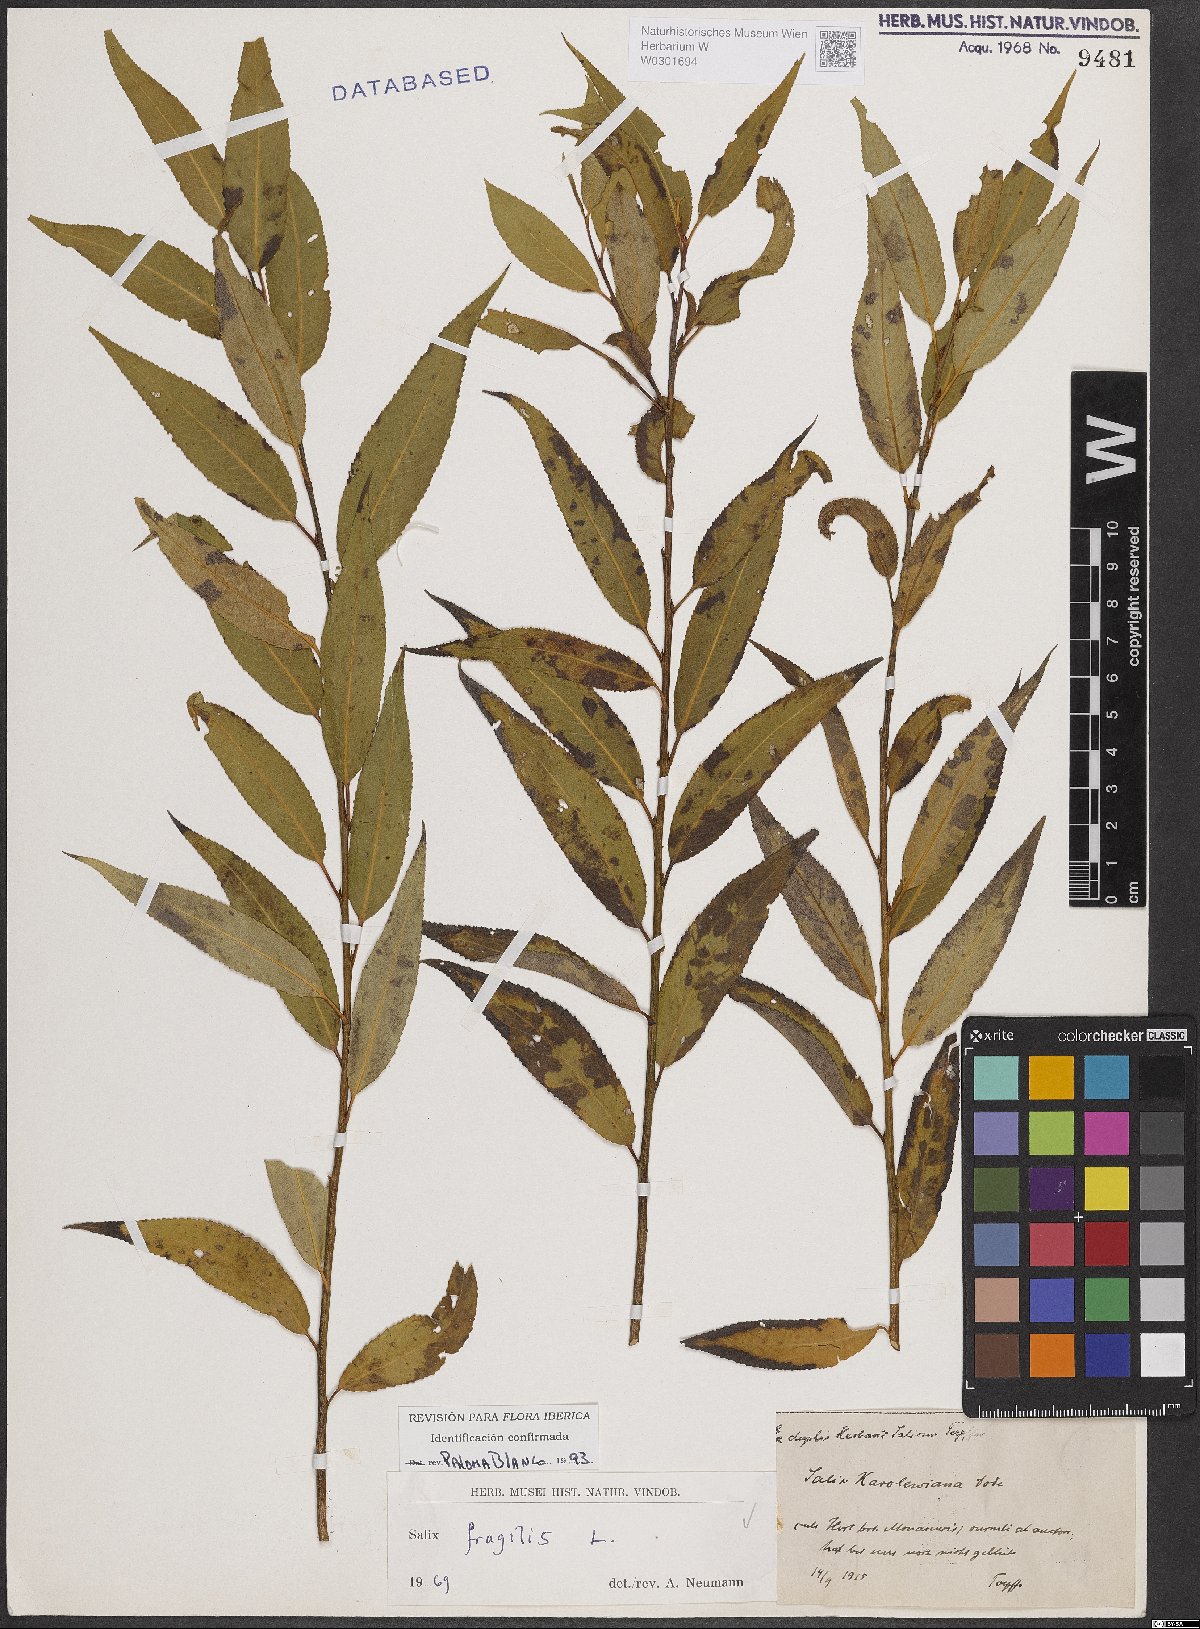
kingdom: Plantae
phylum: Tracheophyta
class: Magnoliopsida
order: Malpighiales
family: Salicaceae
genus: Salix
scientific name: Salix fragilis
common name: Crack willow
